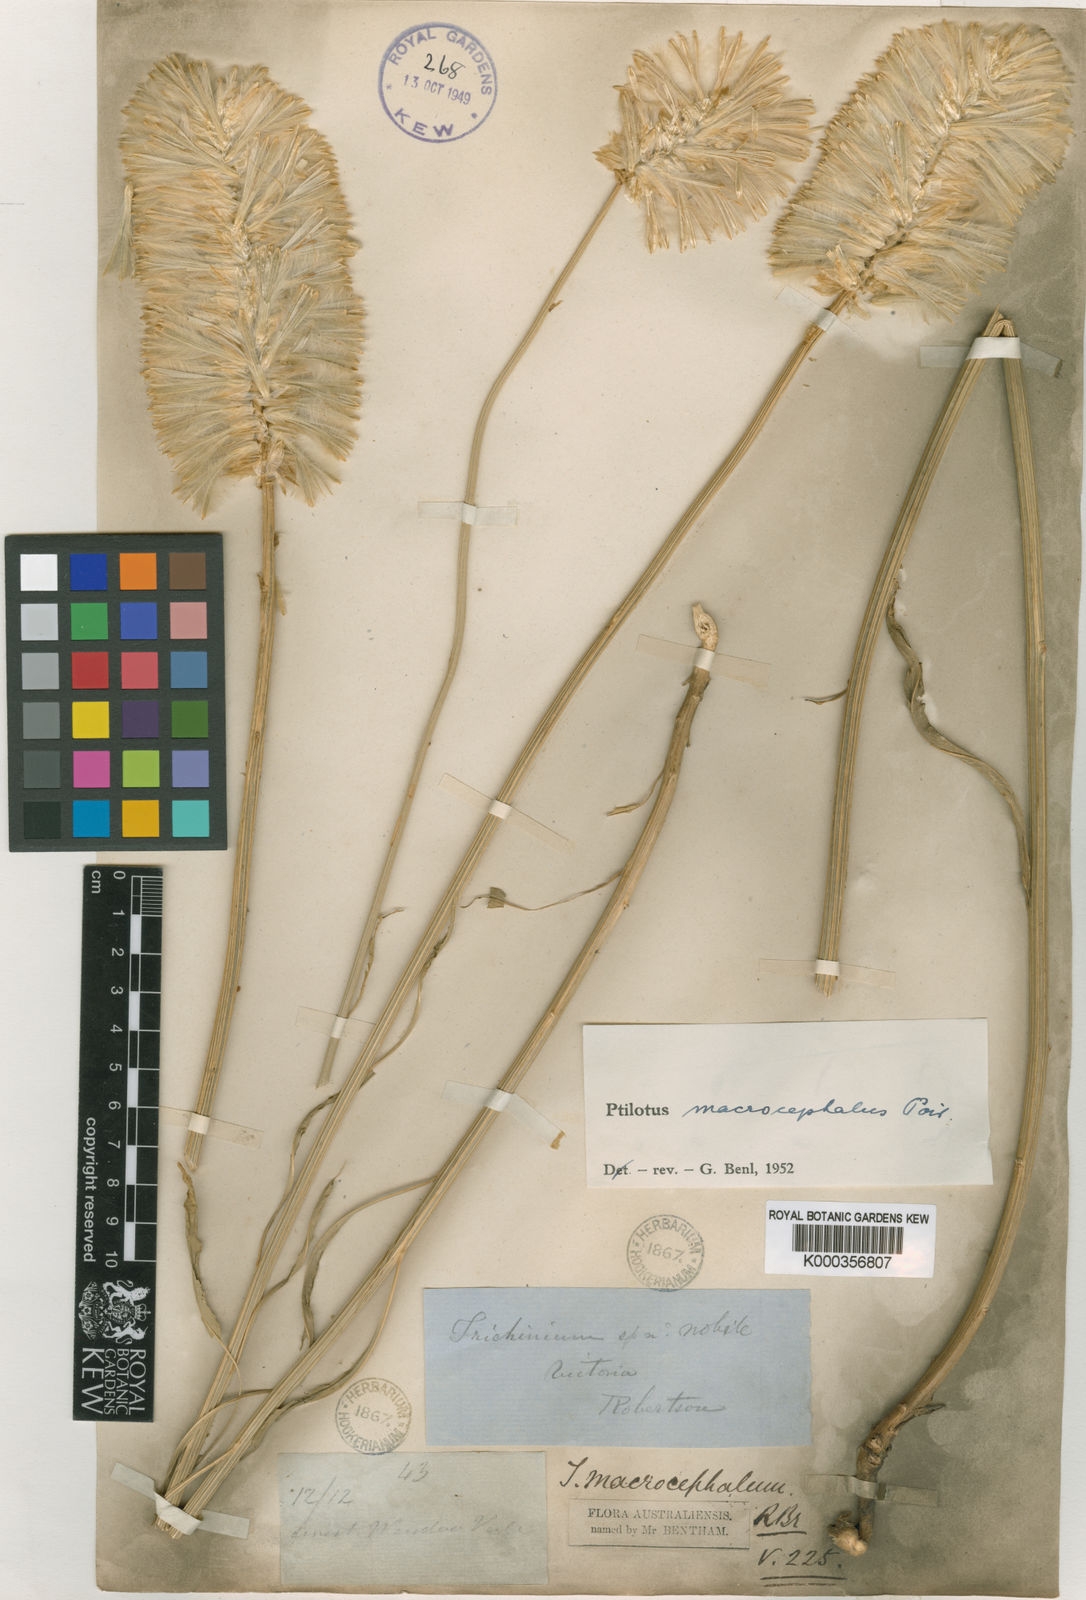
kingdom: Plantae
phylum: Tracheophyta
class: Magnoliopsida
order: Caryophyllales
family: Amaranthaceae
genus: Ptilotus
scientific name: Ptilotus macrocephalus
